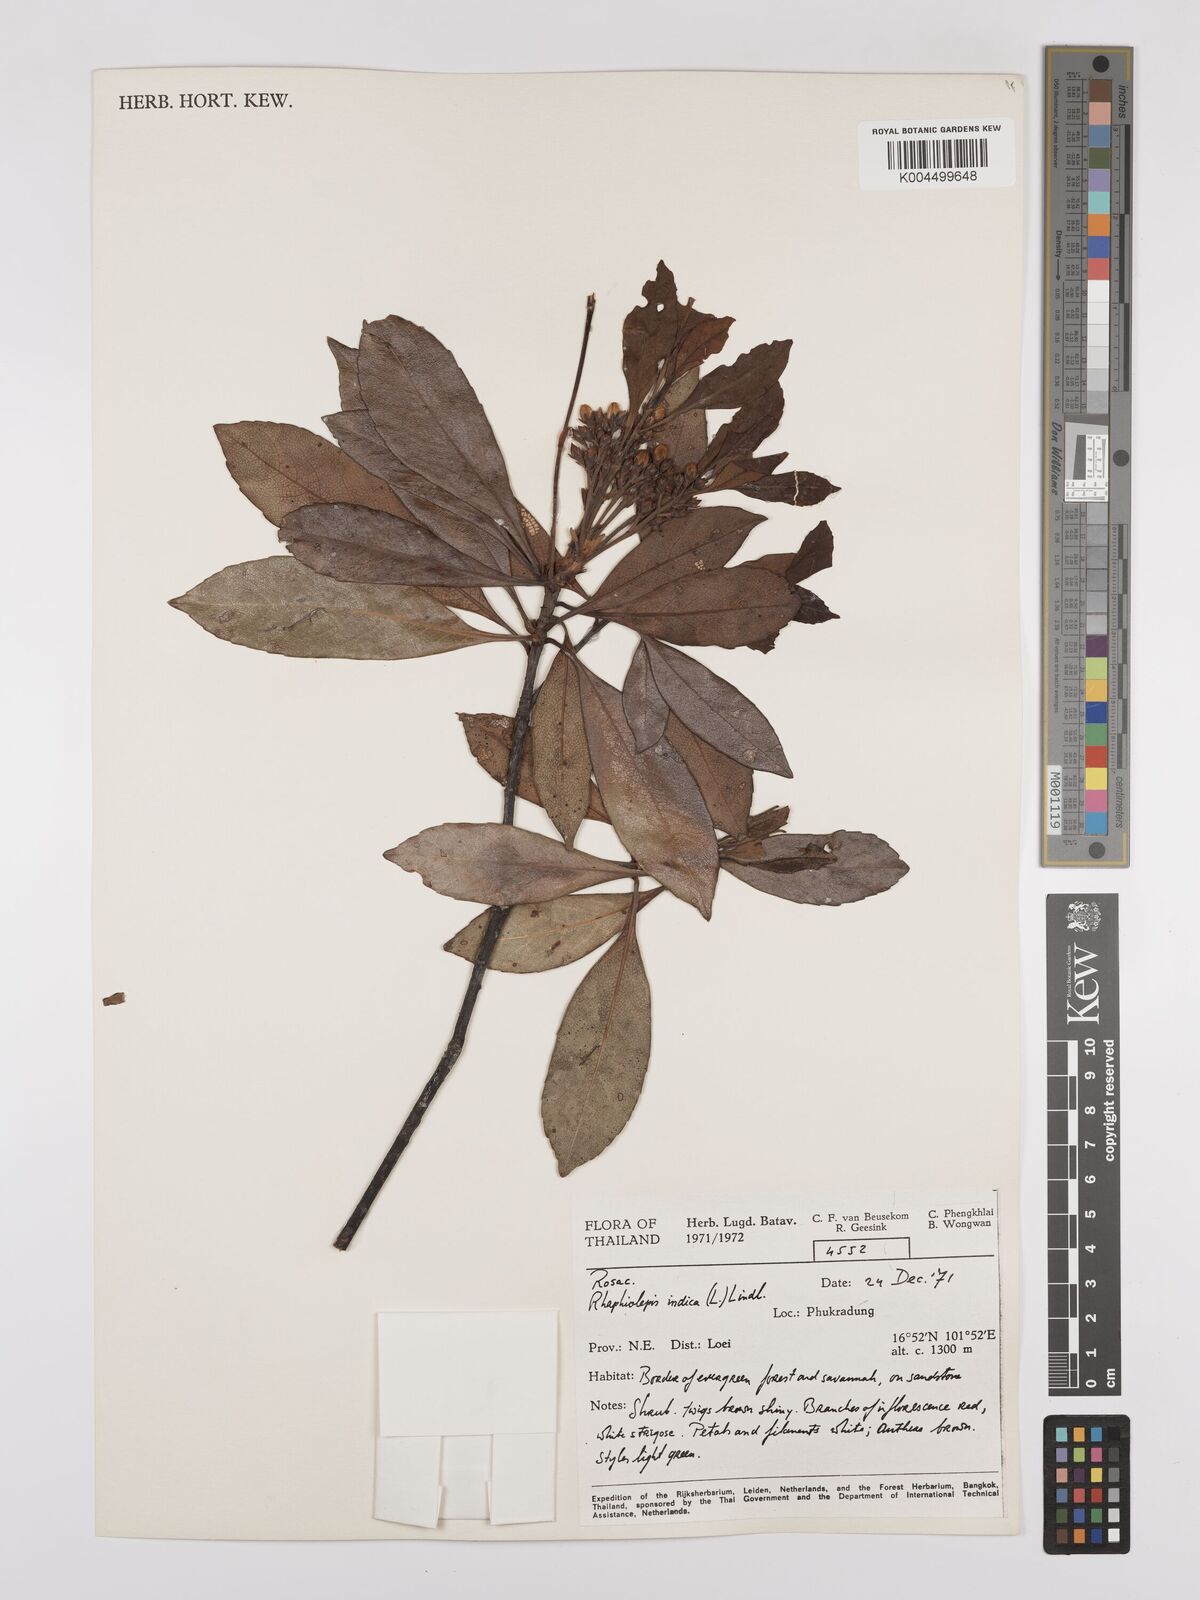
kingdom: Plantae
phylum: Tracheophyta
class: Magnoliopsida
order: Rosales
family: Rosaceae
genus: Rhaphiolepis
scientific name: Rhaphiolepis indica
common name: India-hawthorn
